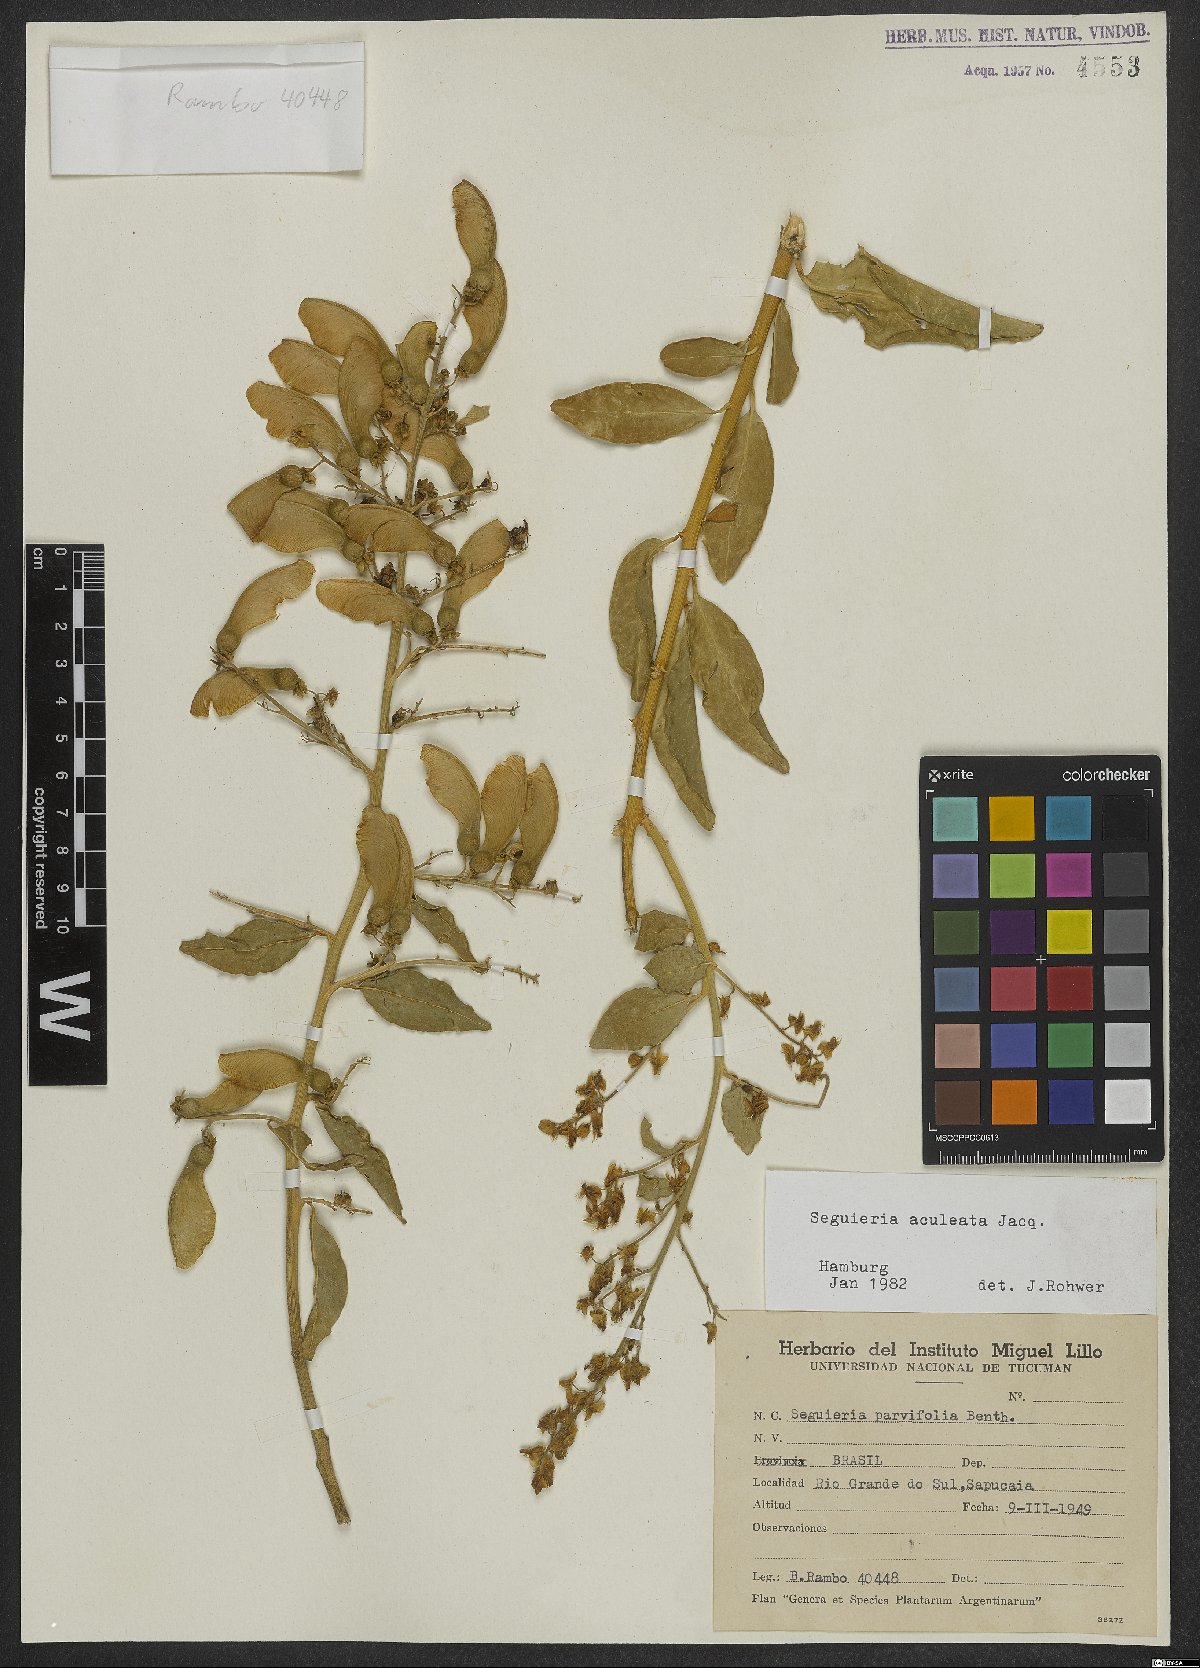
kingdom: Plantae
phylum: Tracheophyta
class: Magnoliopsida
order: Caryophyllales
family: Phytolaccaceae
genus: Seguieria
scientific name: Seguieria aculeata
